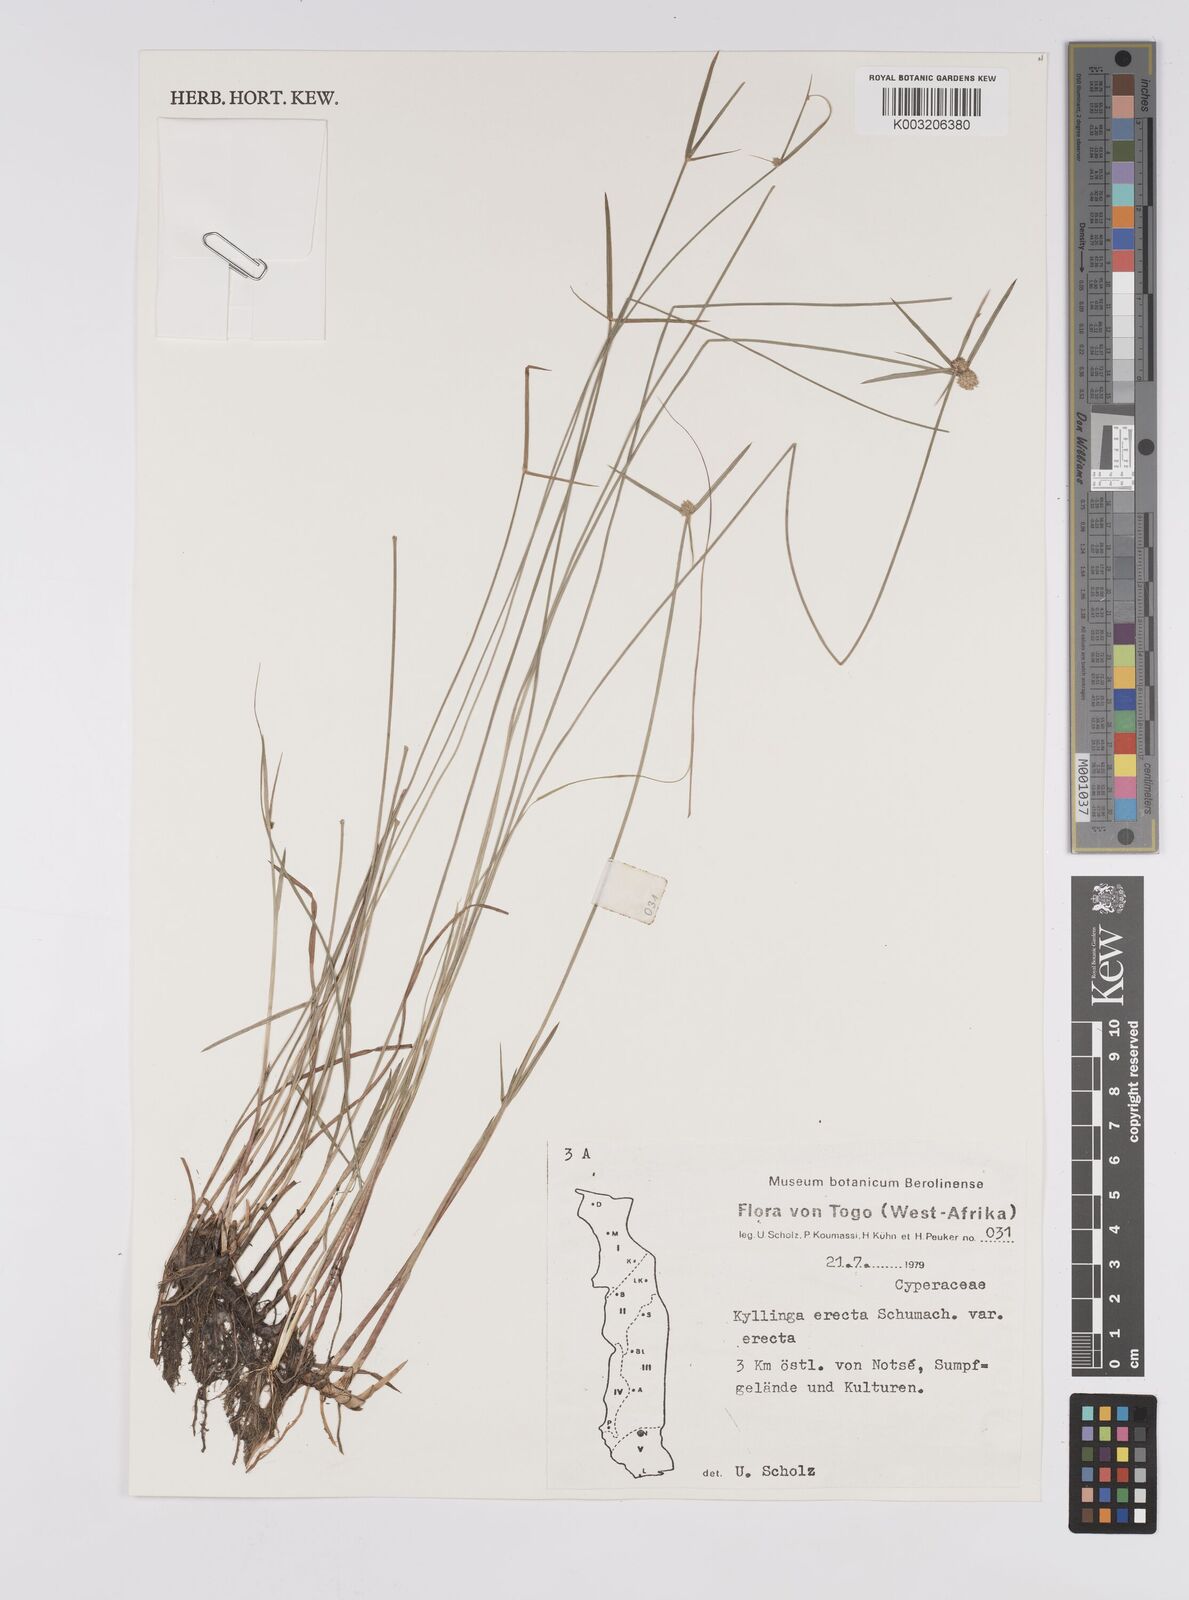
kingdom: Plantae
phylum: Tracheophyta
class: Liliopsida
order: Poales
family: Cyperaceae
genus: Cyperus
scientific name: Cyperus erectus
